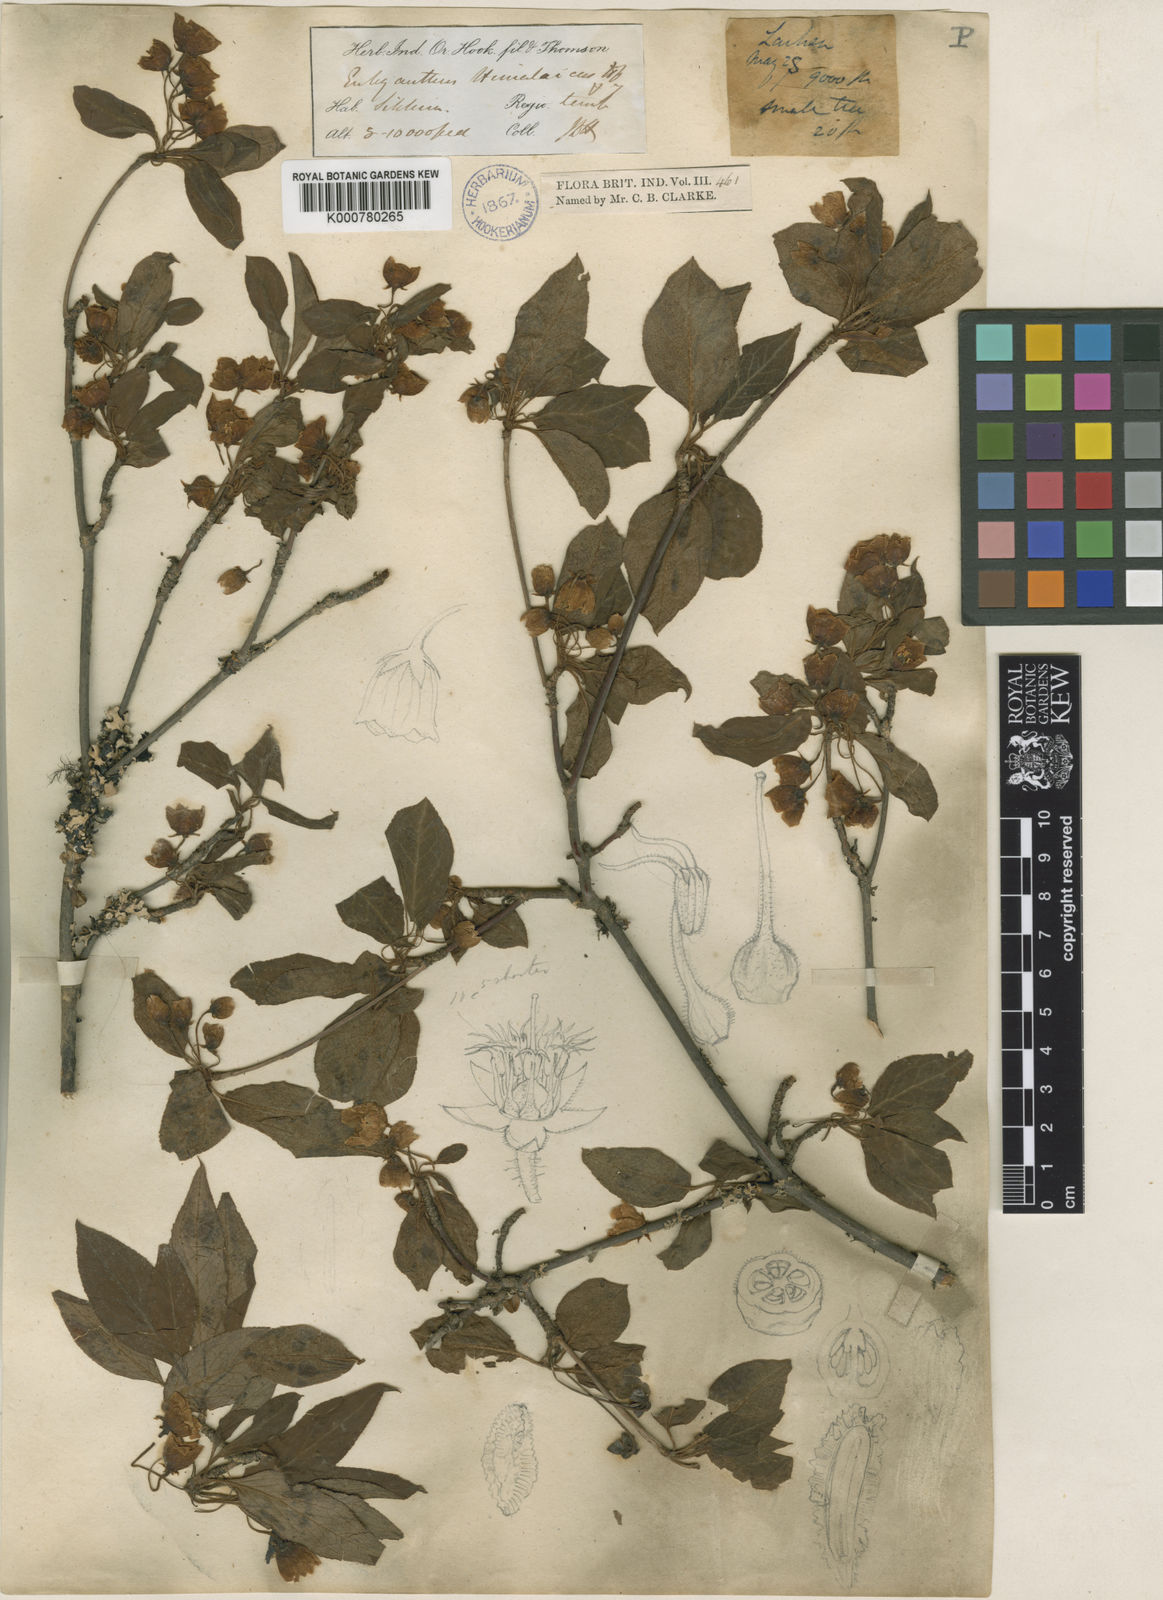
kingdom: Plantae
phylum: Tracheophyta
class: Magnoliopsida
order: Ericales
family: Ericaceae
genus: Enkianthus
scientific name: Enkianthus deflexus
